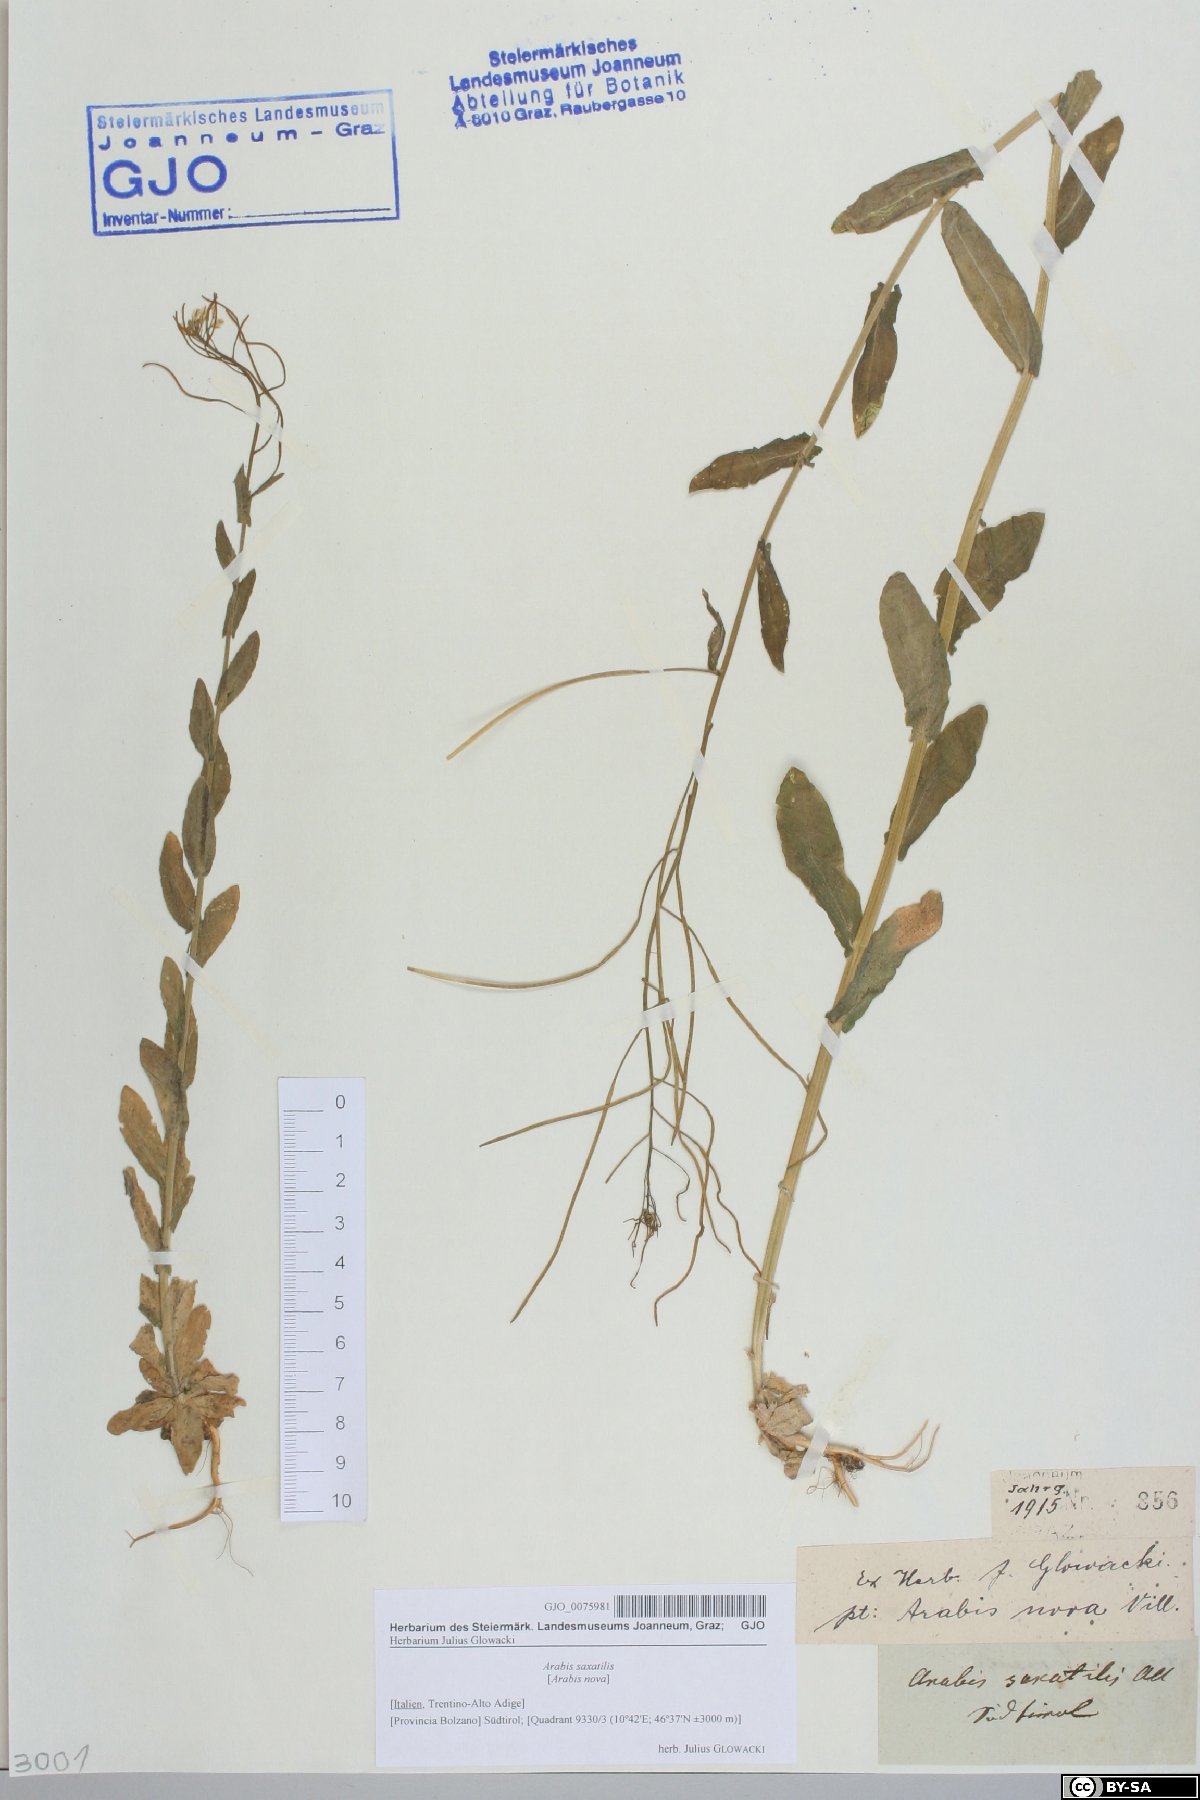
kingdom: Plantae
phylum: Tracheophyta
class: Magnoliopsida
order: Brassicales
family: Brassicaceae
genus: Arabis
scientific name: Arabis nova
